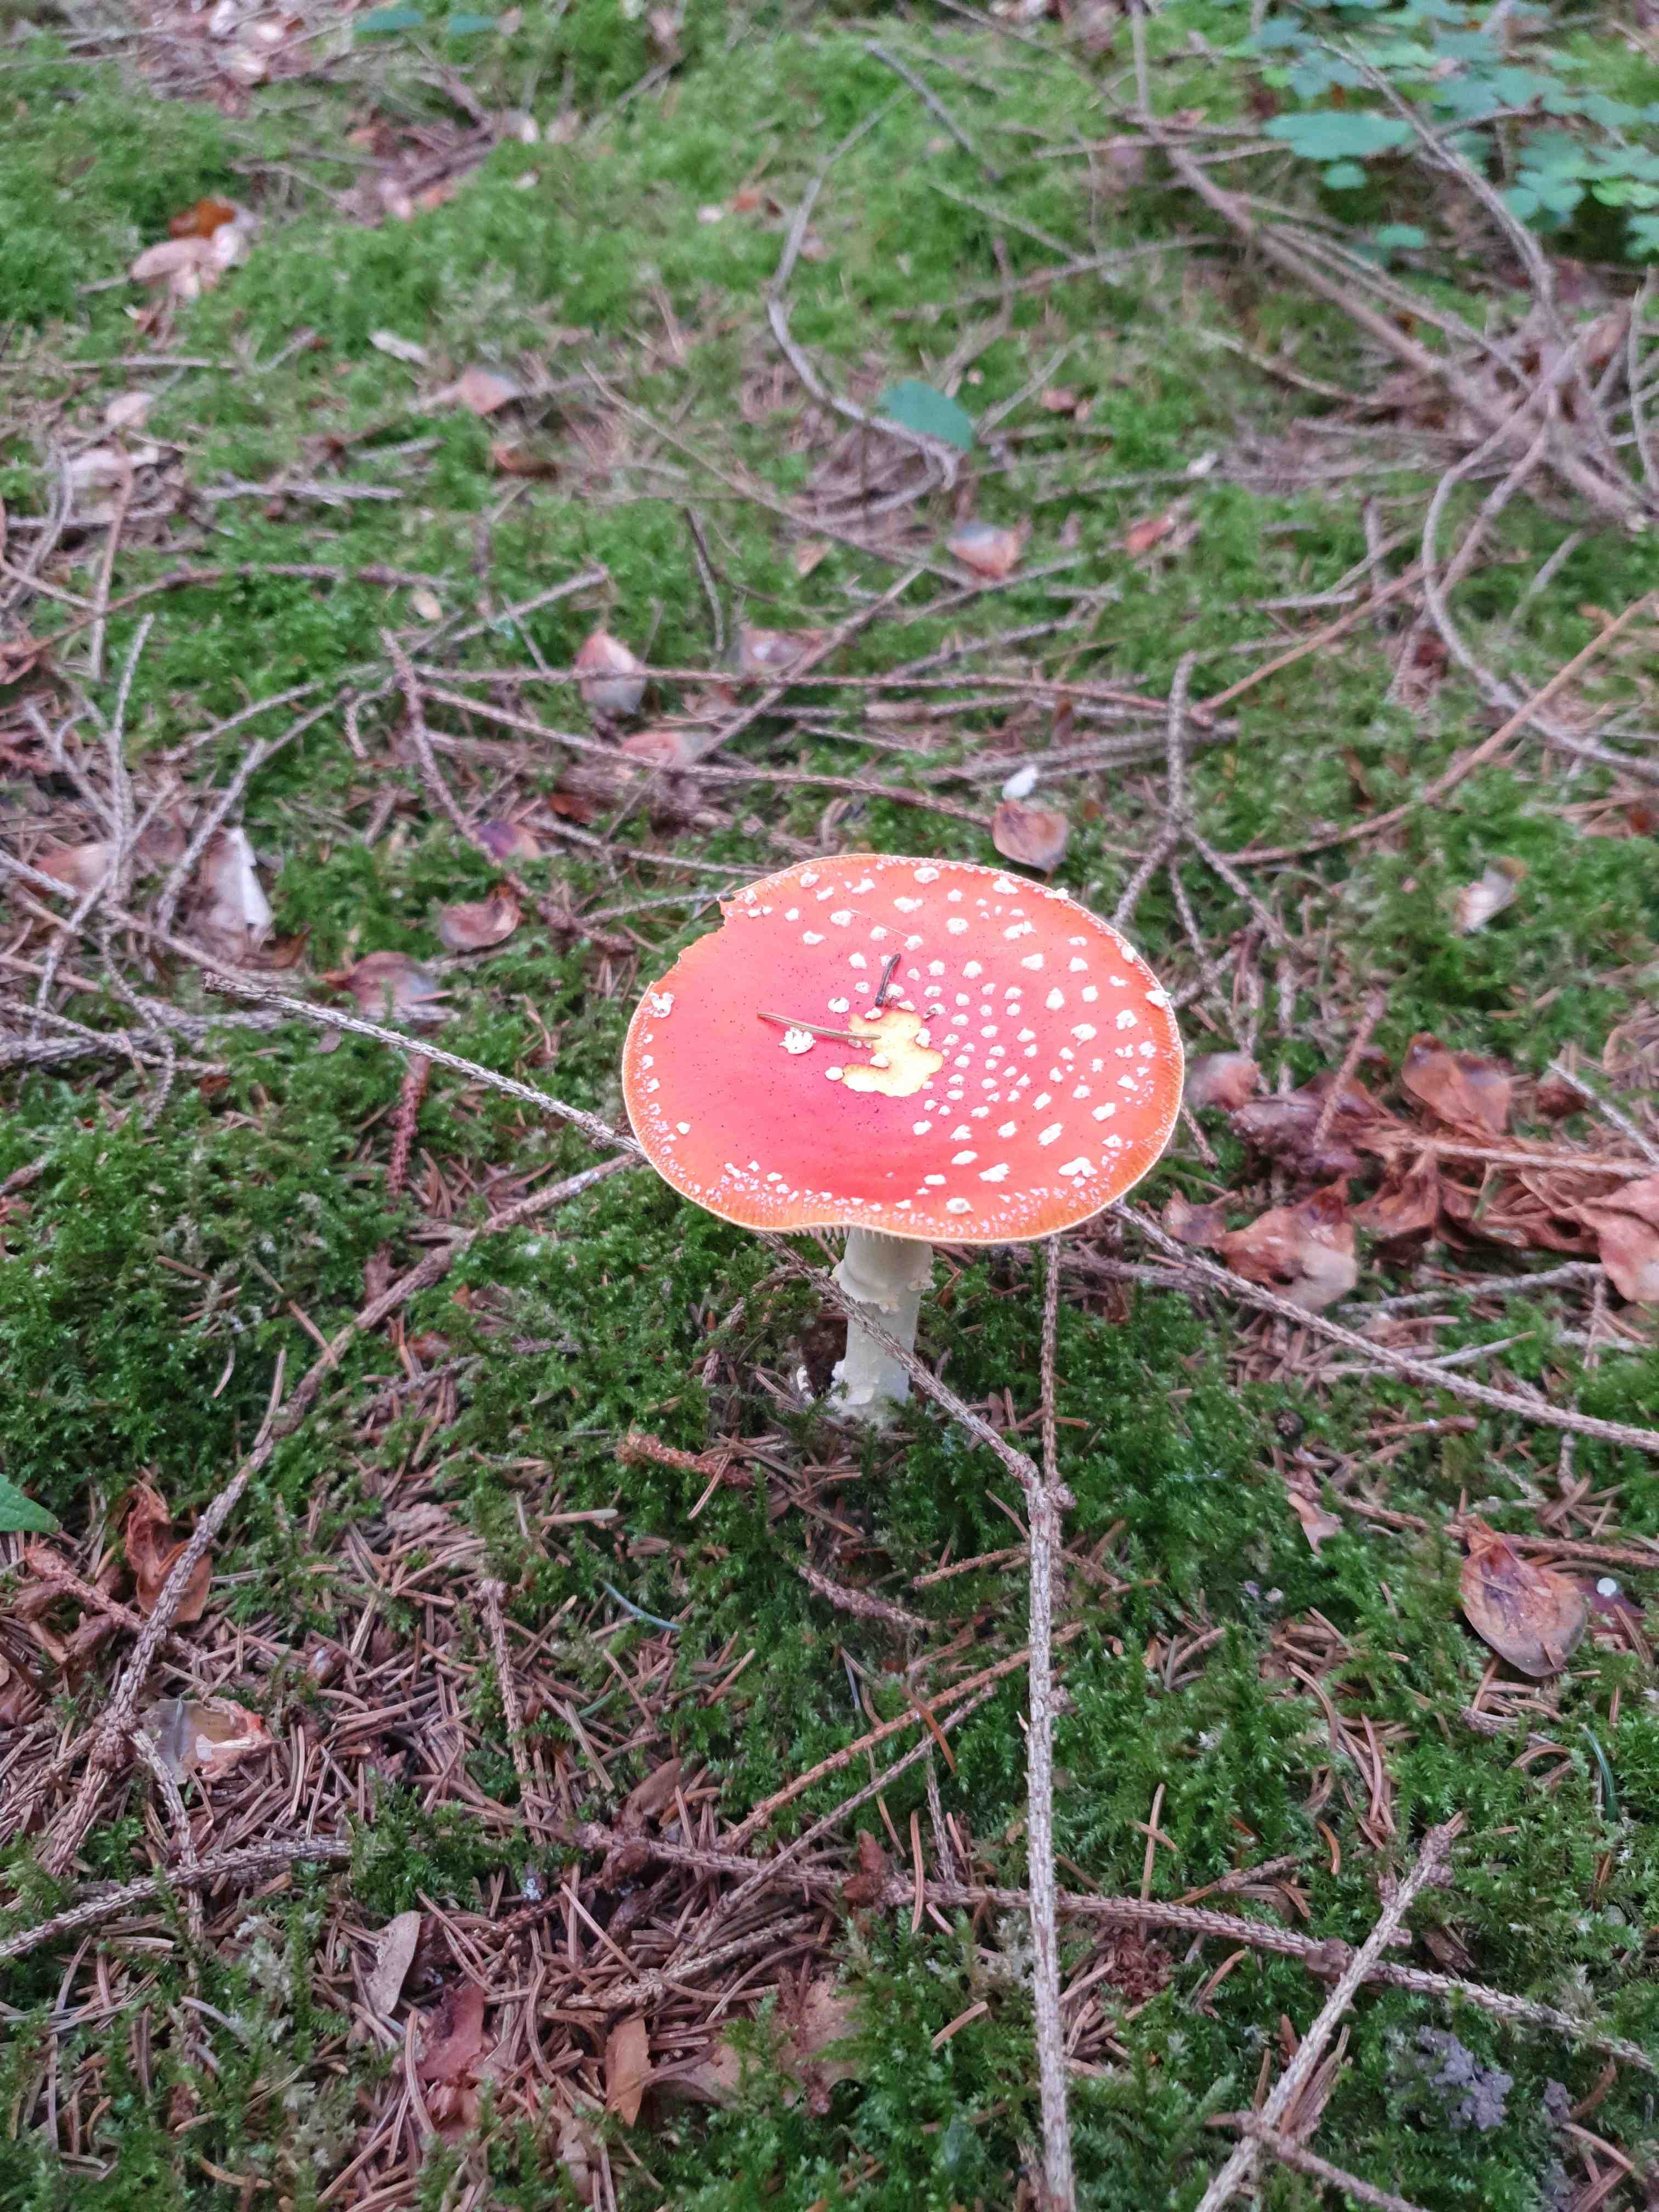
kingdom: Fungi
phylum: Basidiomycota
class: Agaricomycetes
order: Agaricales
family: Amanitaceae
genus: Amanita
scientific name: Amanita muscaria
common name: rød fluesvamp
